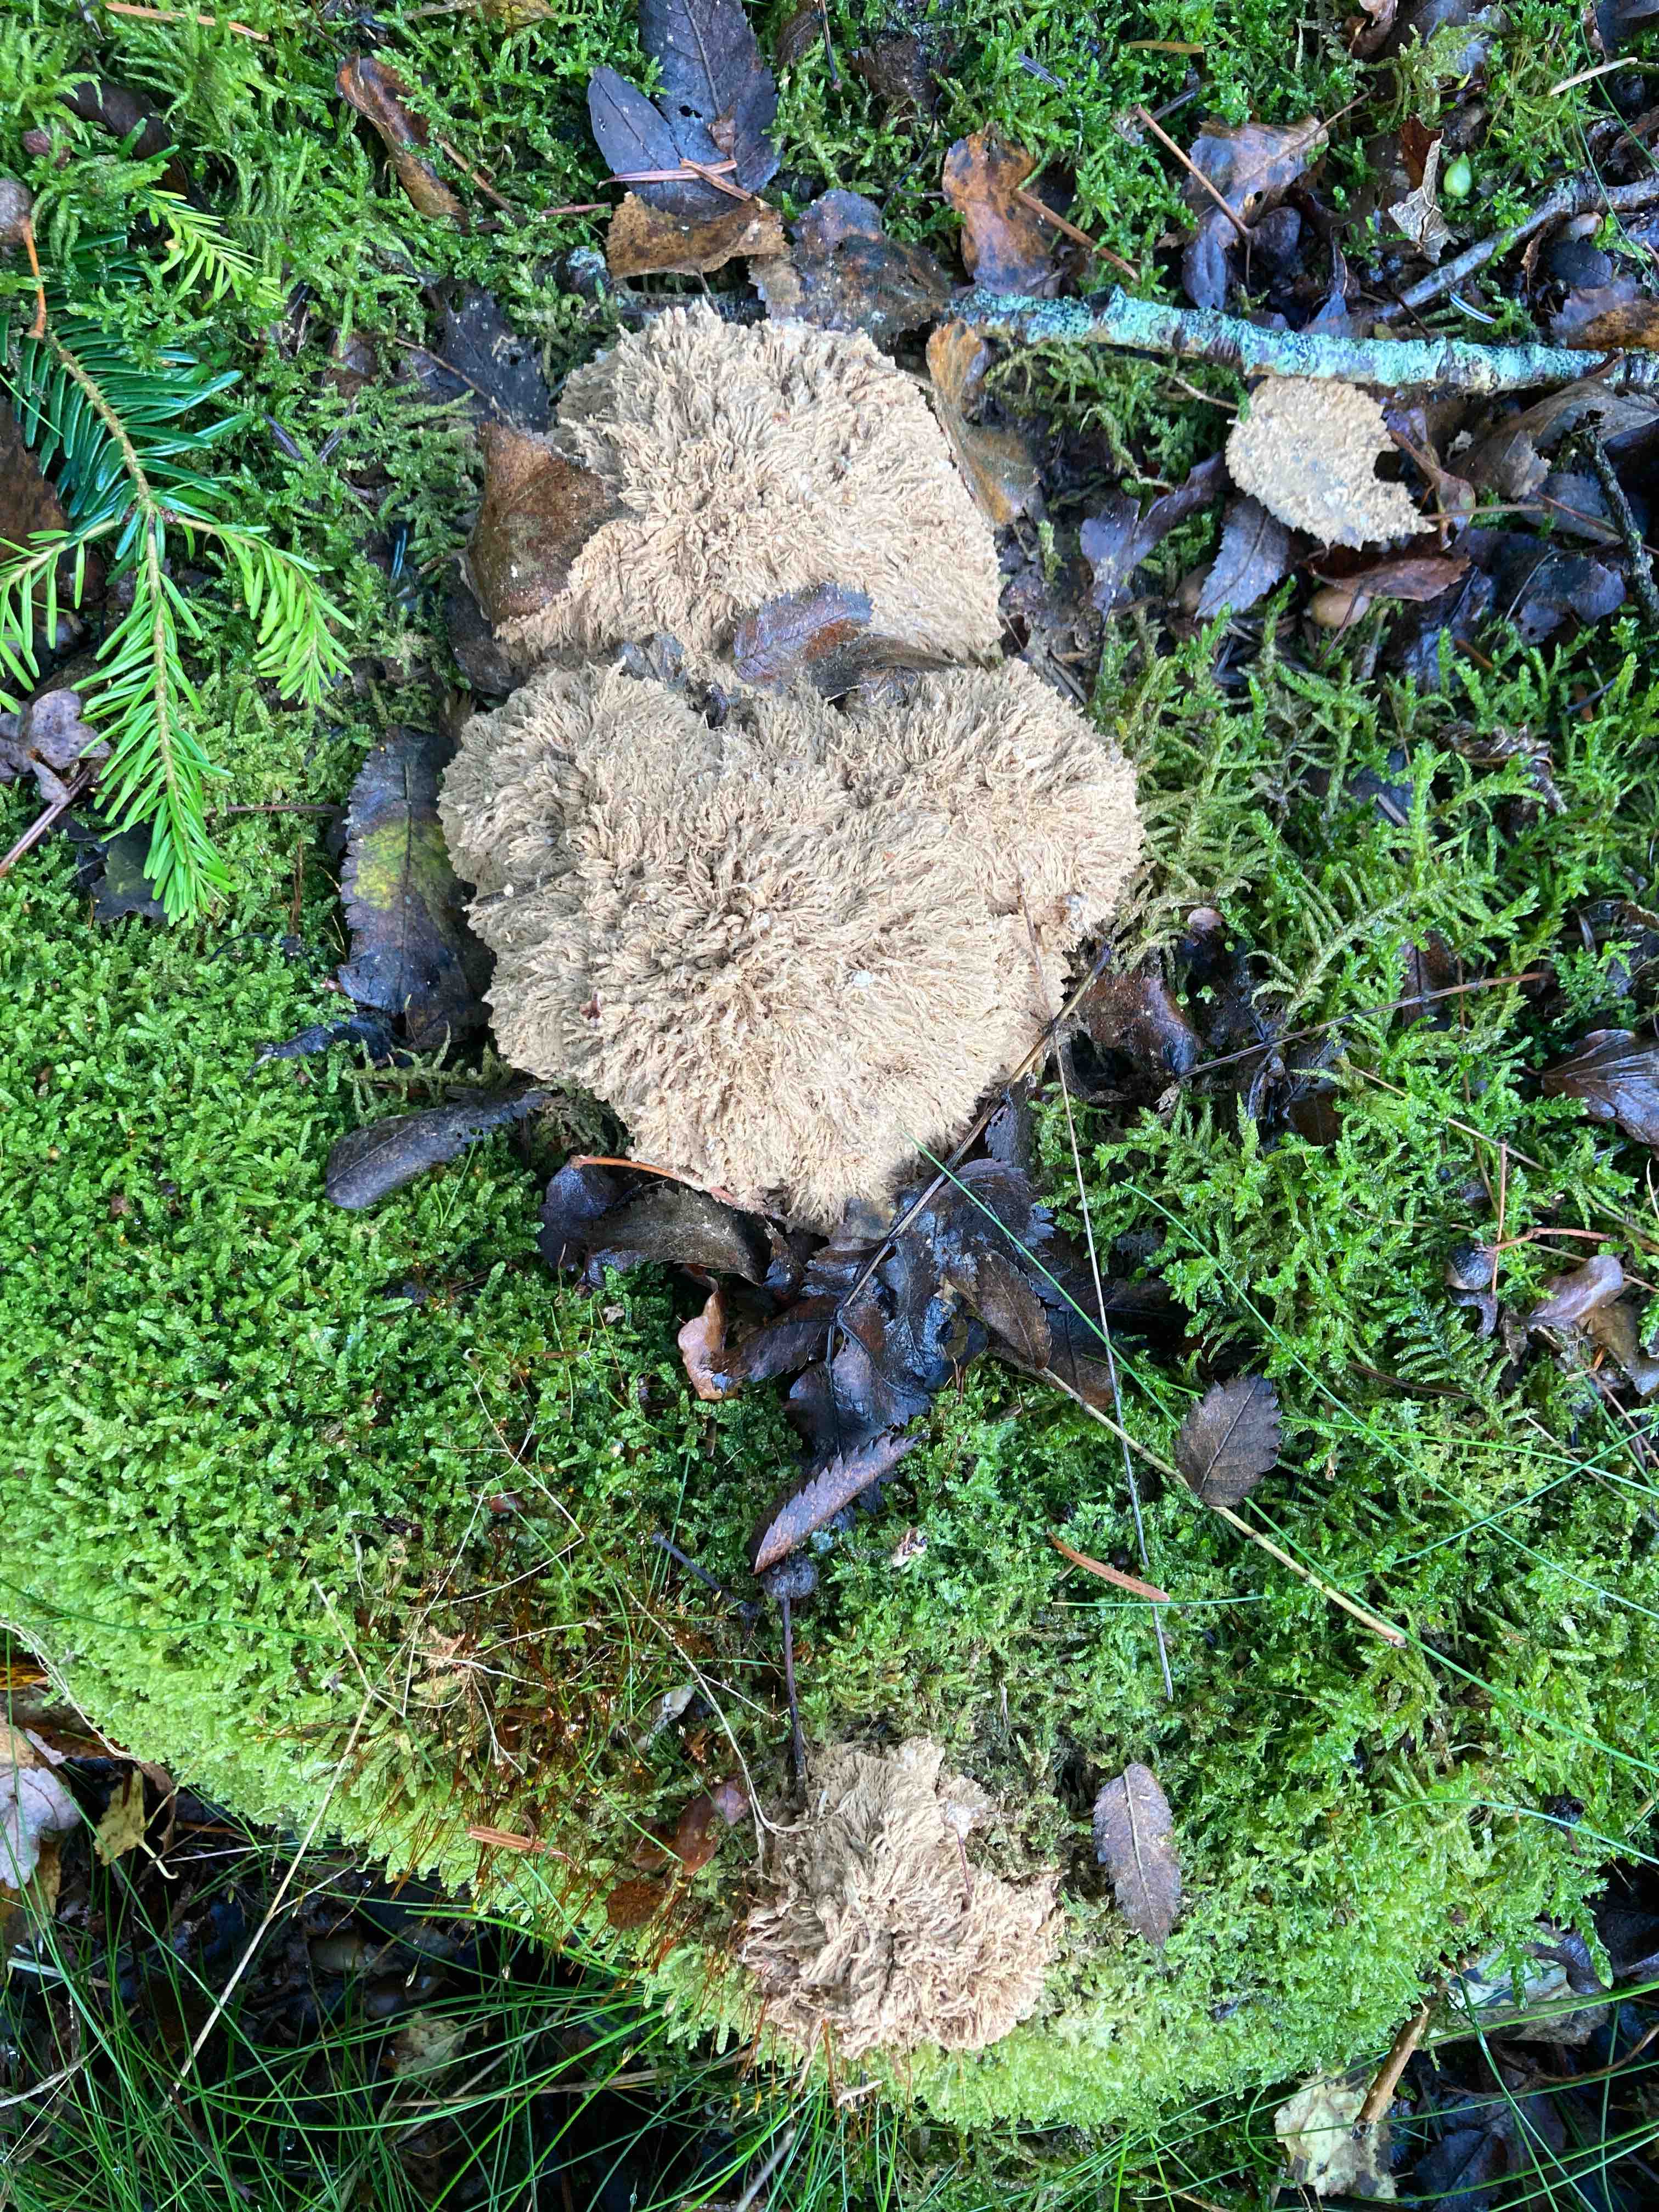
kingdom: Fungi
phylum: Basidiomycota
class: Agaricomycetes
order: Polyporales
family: Dacryobolaceae
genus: Postia
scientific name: Postia ptychogaster
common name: støvende kødporesvamp
